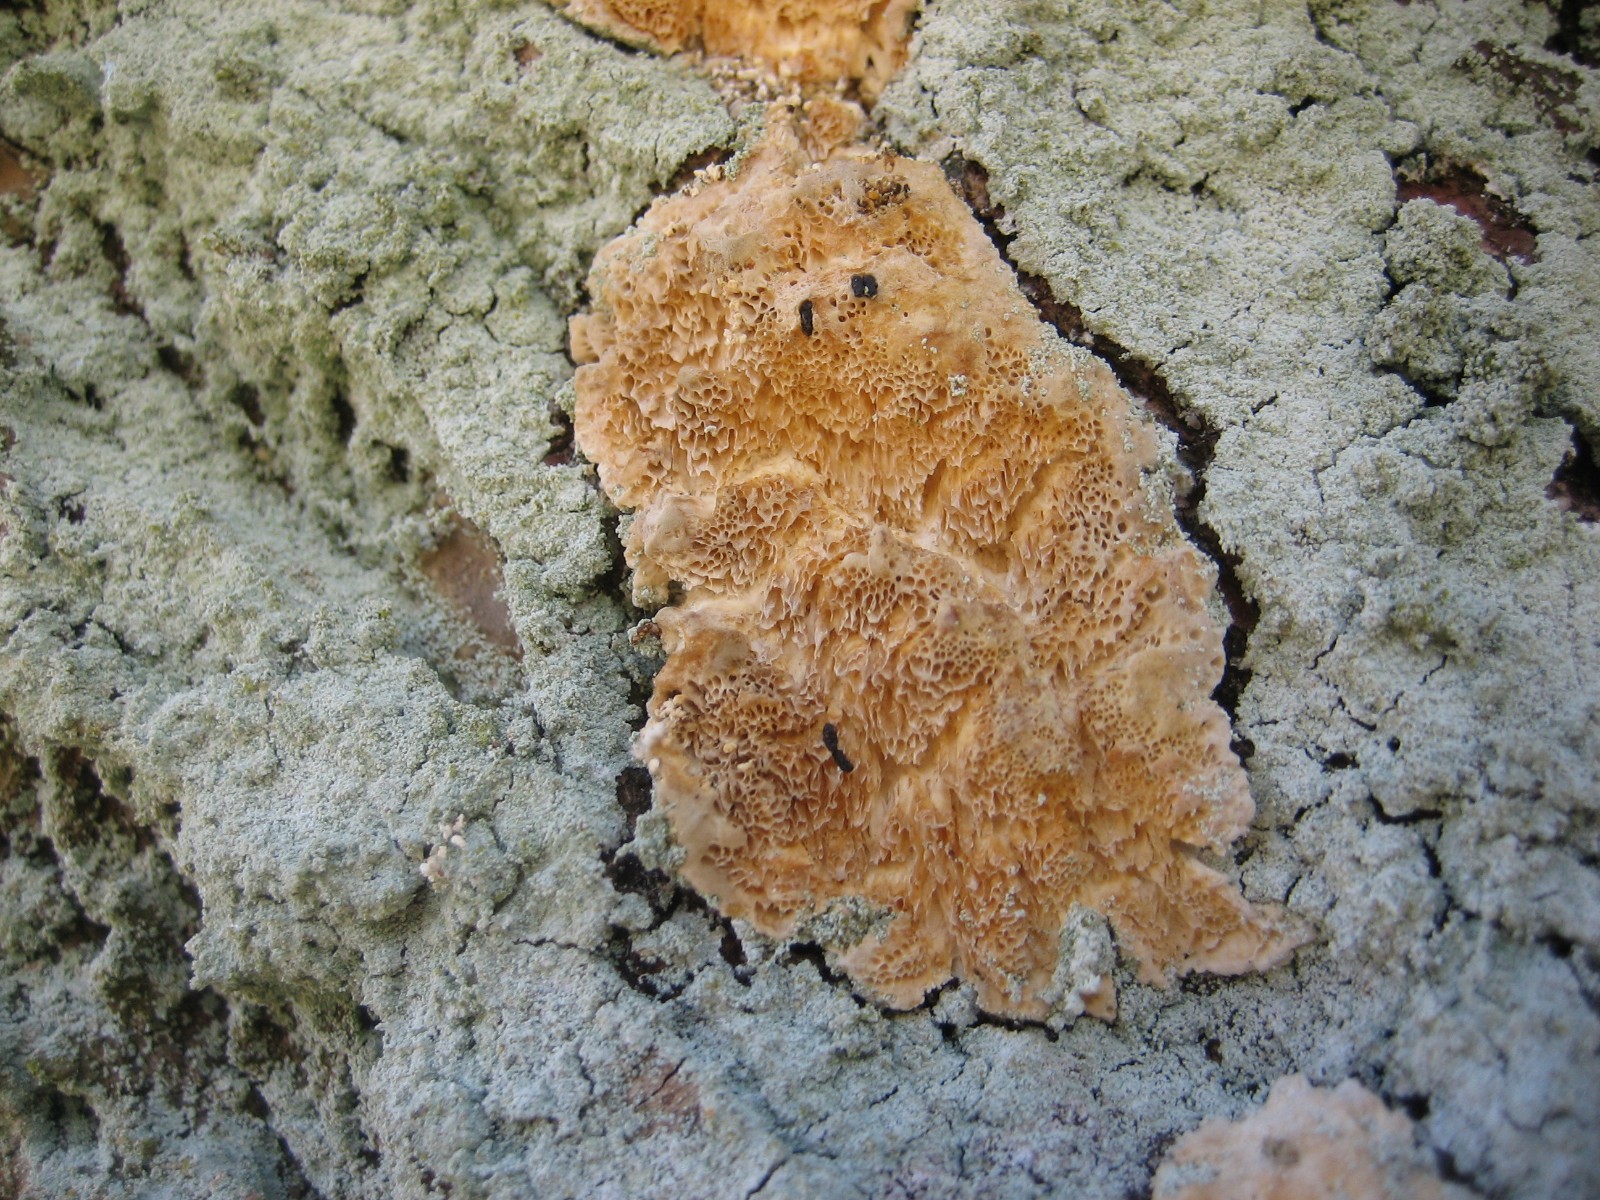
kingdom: Fungi
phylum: Basidiomycota
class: Agaricomycetes
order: Polyporales
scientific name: Polyporales
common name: poresvampordenen
